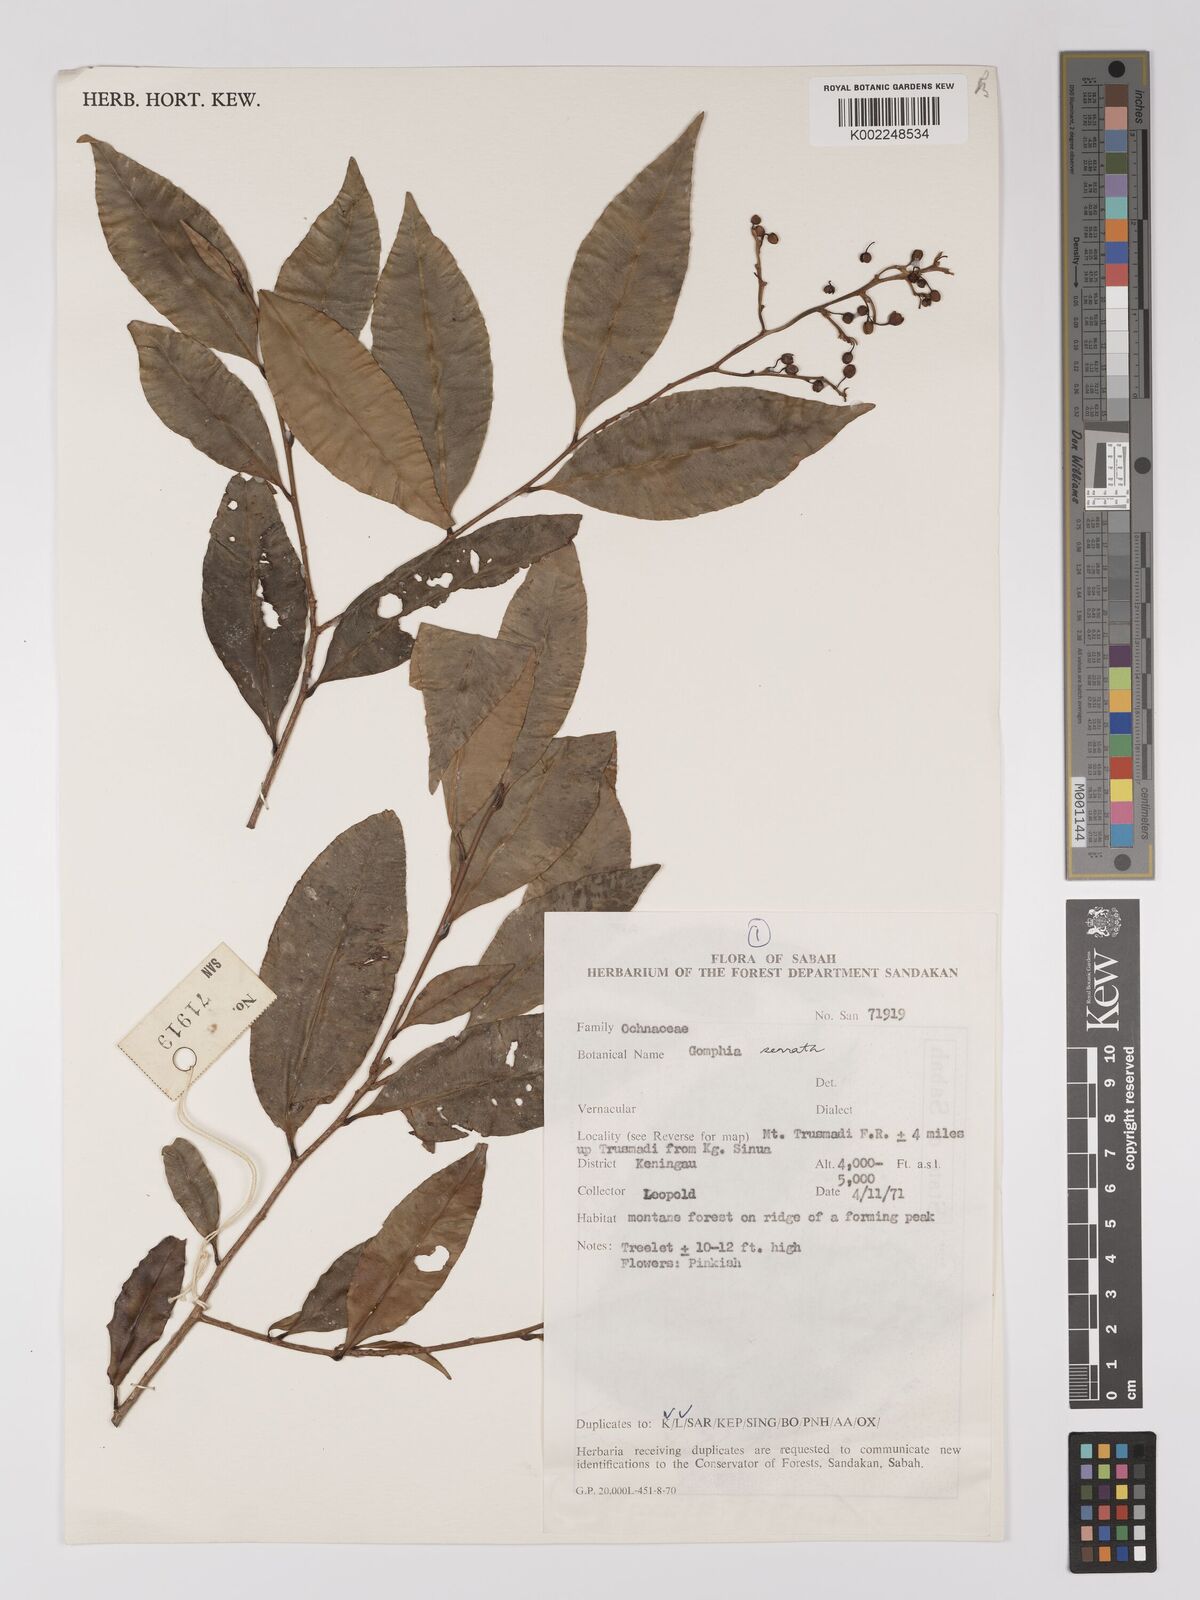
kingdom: Plantae
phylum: Tracheophyta
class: Magnoliopsida
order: Malpighiales
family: Ochnaceae
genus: Gomphia
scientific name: Gomphia serrata
